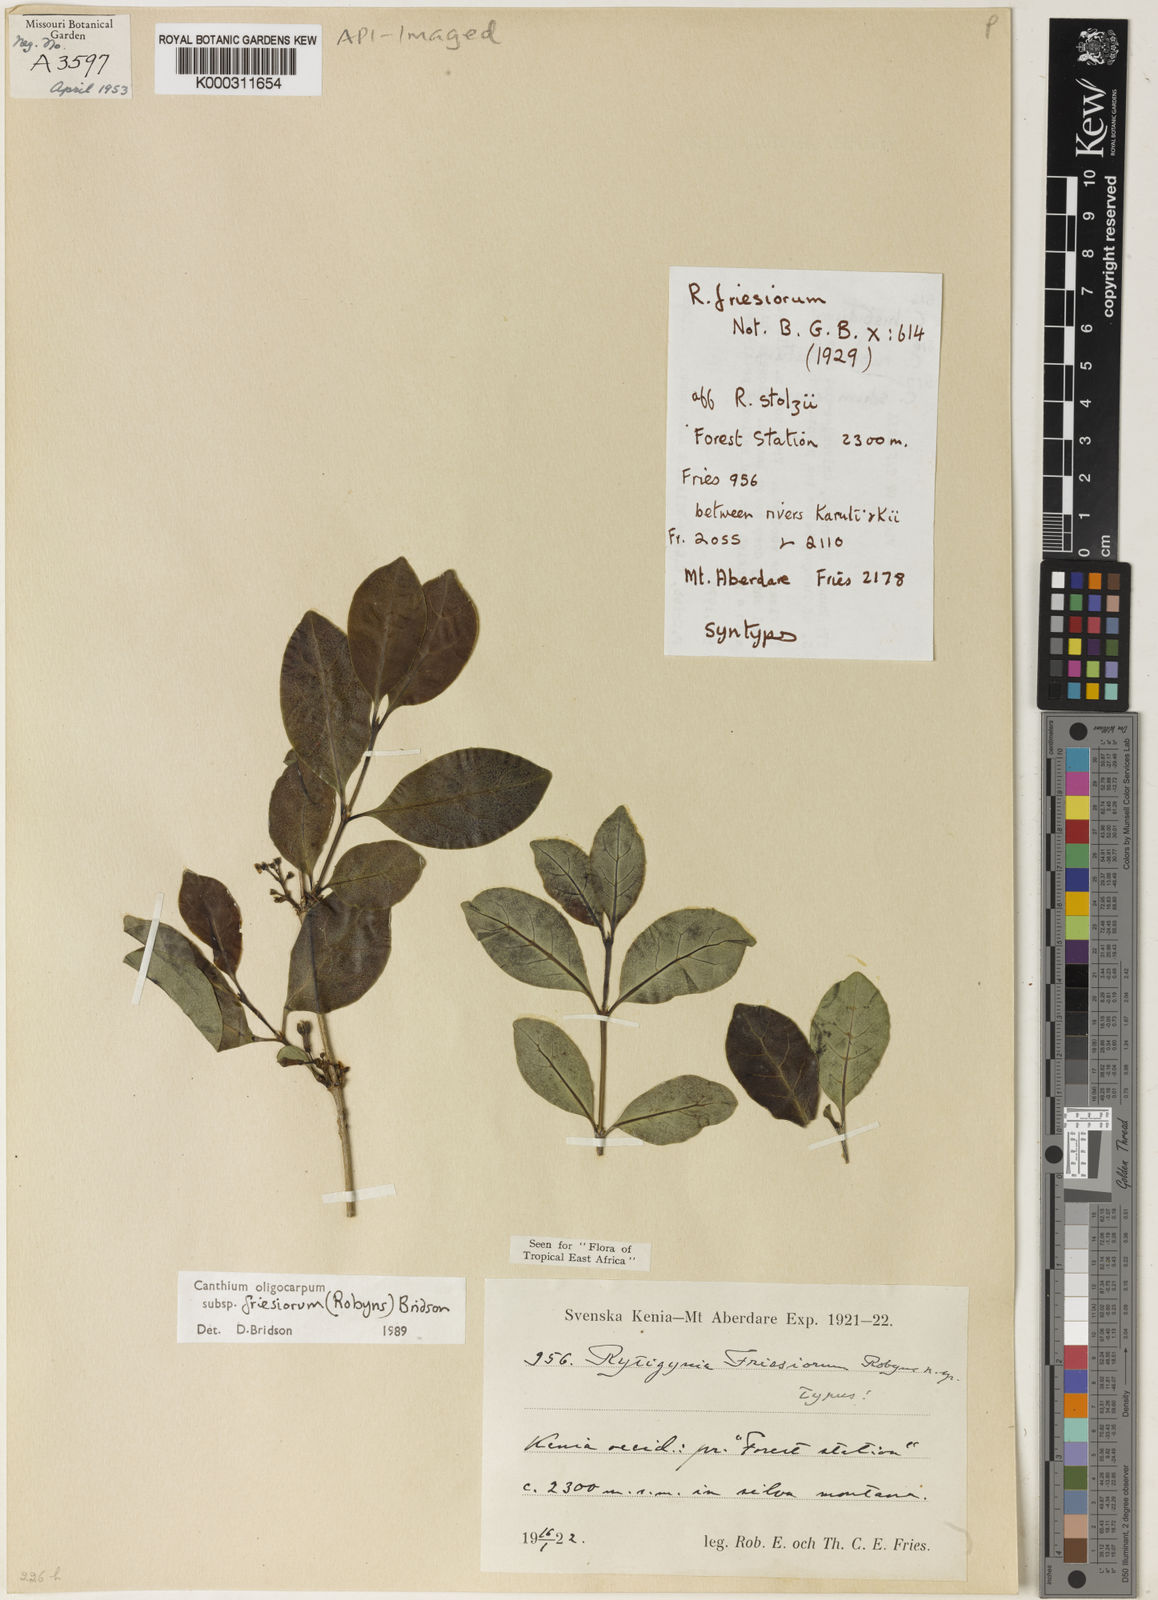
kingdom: Plantae
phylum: Tracheophyta
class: Magnoliopsida
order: Gentianales
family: Rubiaceae
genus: Canthium
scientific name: Canthium oligocarpum
